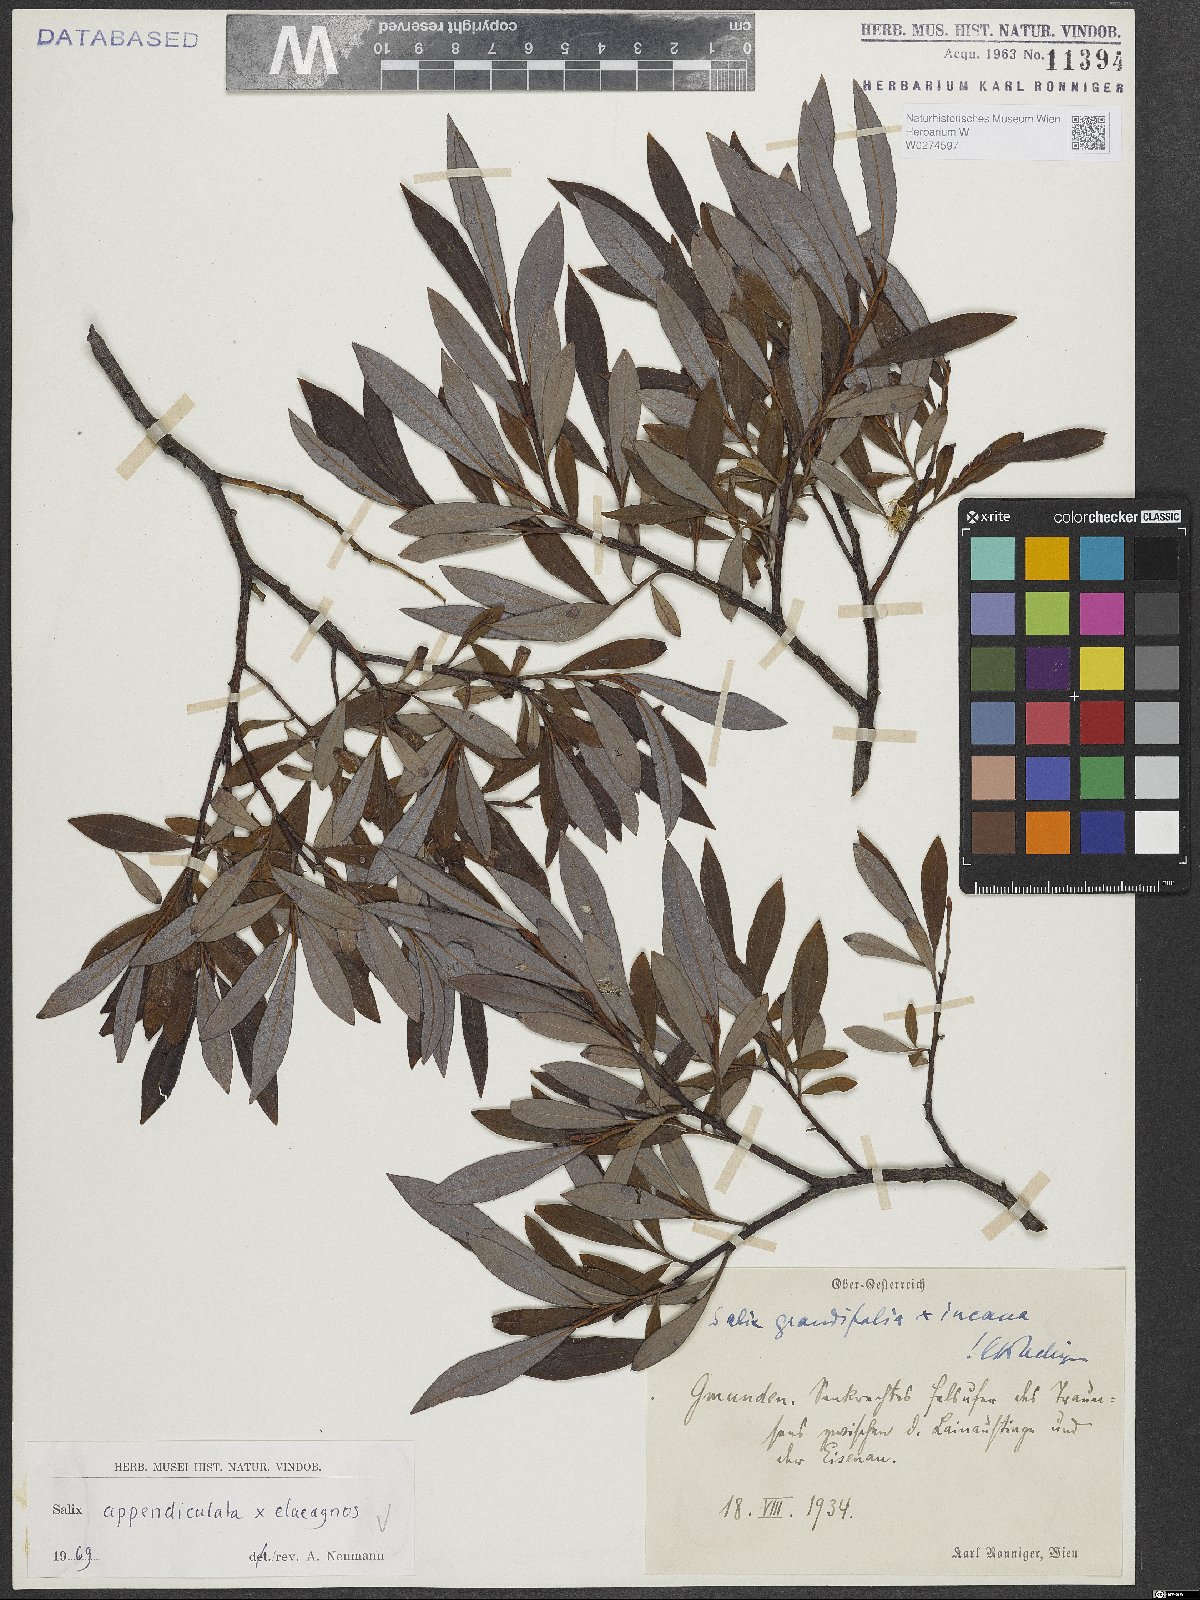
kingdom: Plantae
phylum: Tracheophyta
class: Magnoliopsida
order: Malpighiales
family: Salicaceae
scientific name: Salicaceae
